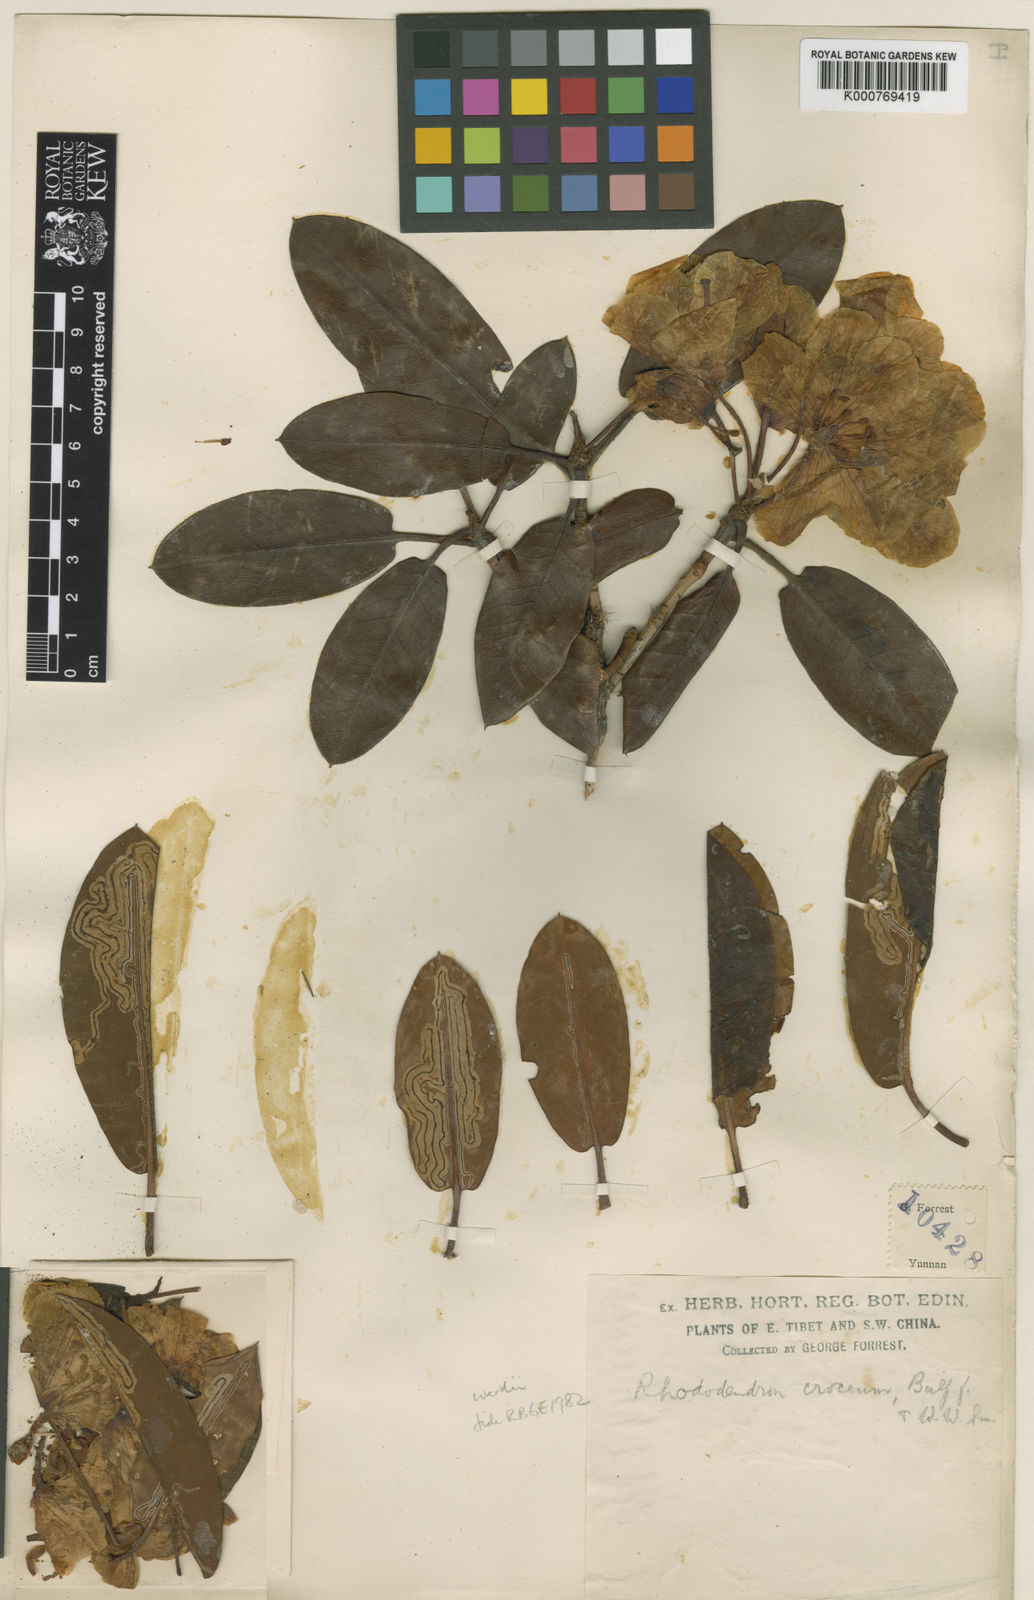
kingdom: Plantae
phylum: Tracheophyta
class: Magnoliopsida
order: Ericales
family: Ericaceae
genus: Rhododendron
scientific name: Rhododendron wardii
